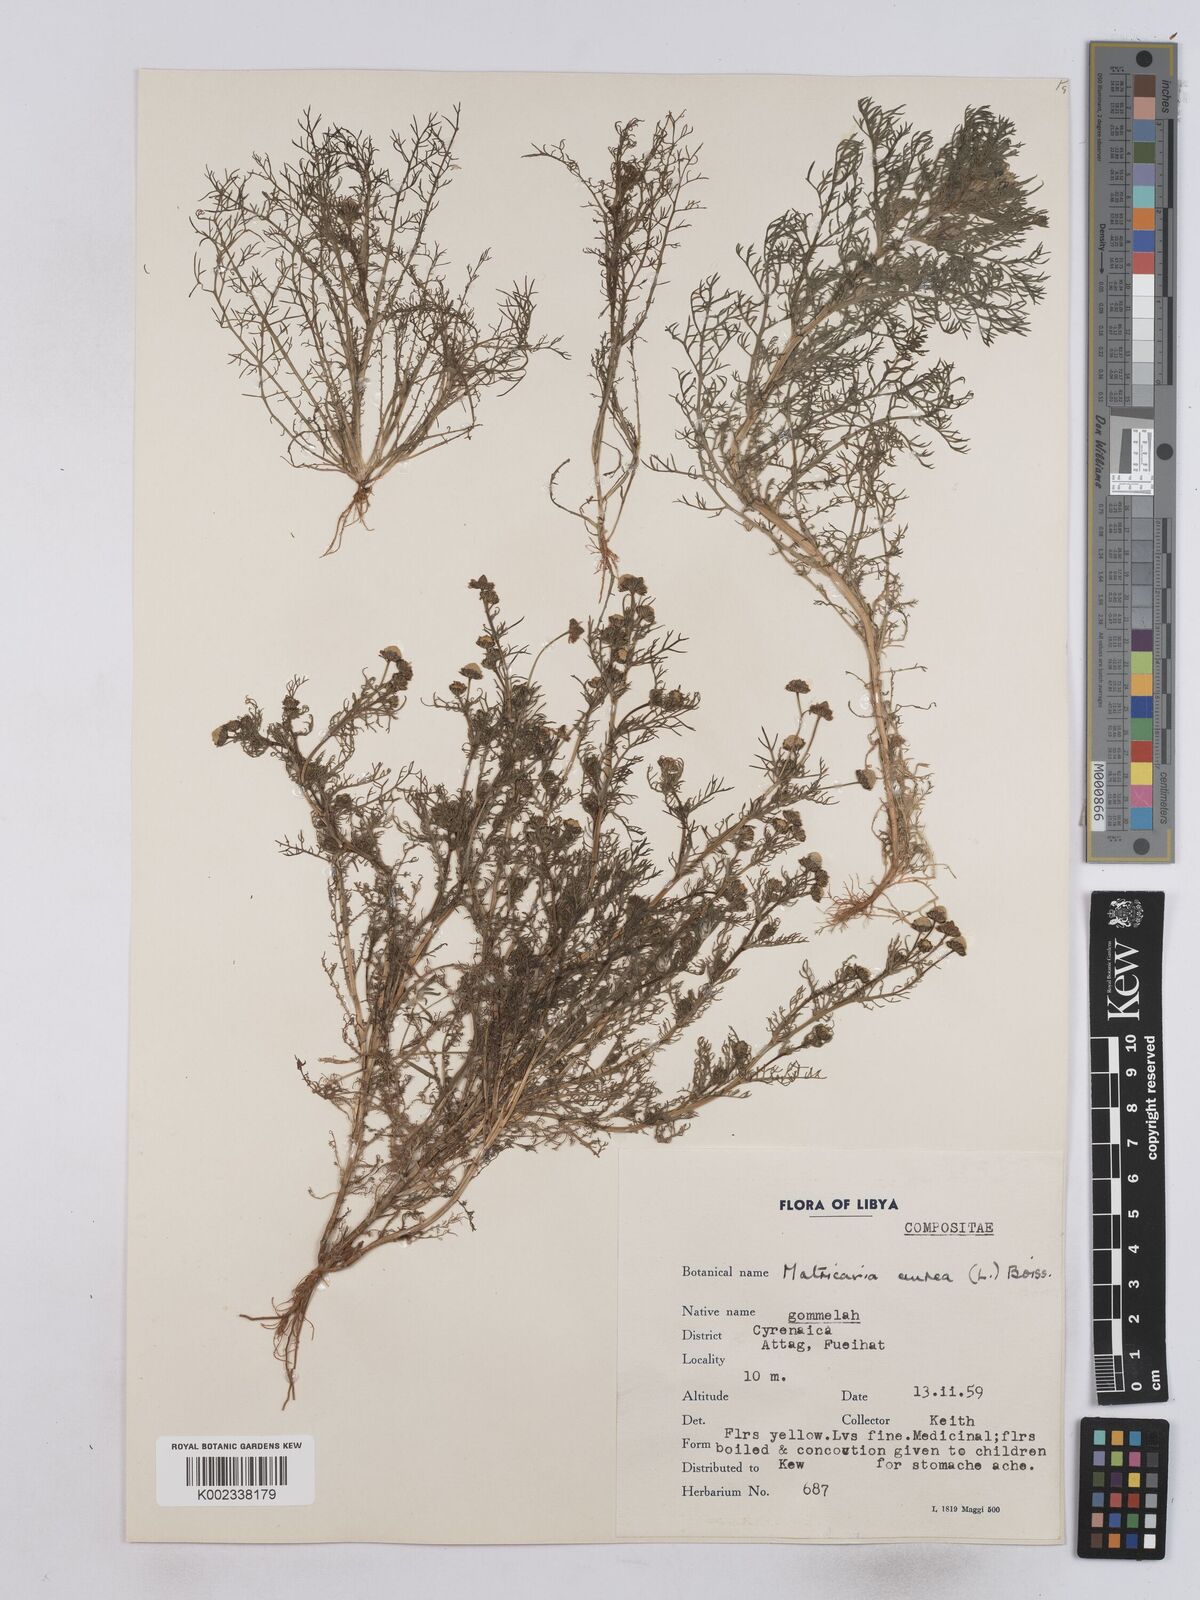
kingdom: Plantae
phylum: Tracheophyta
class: Magnoliopsida
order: Asterales
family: Asteraceae
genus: Matricaria
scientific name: Matricaria aurea
